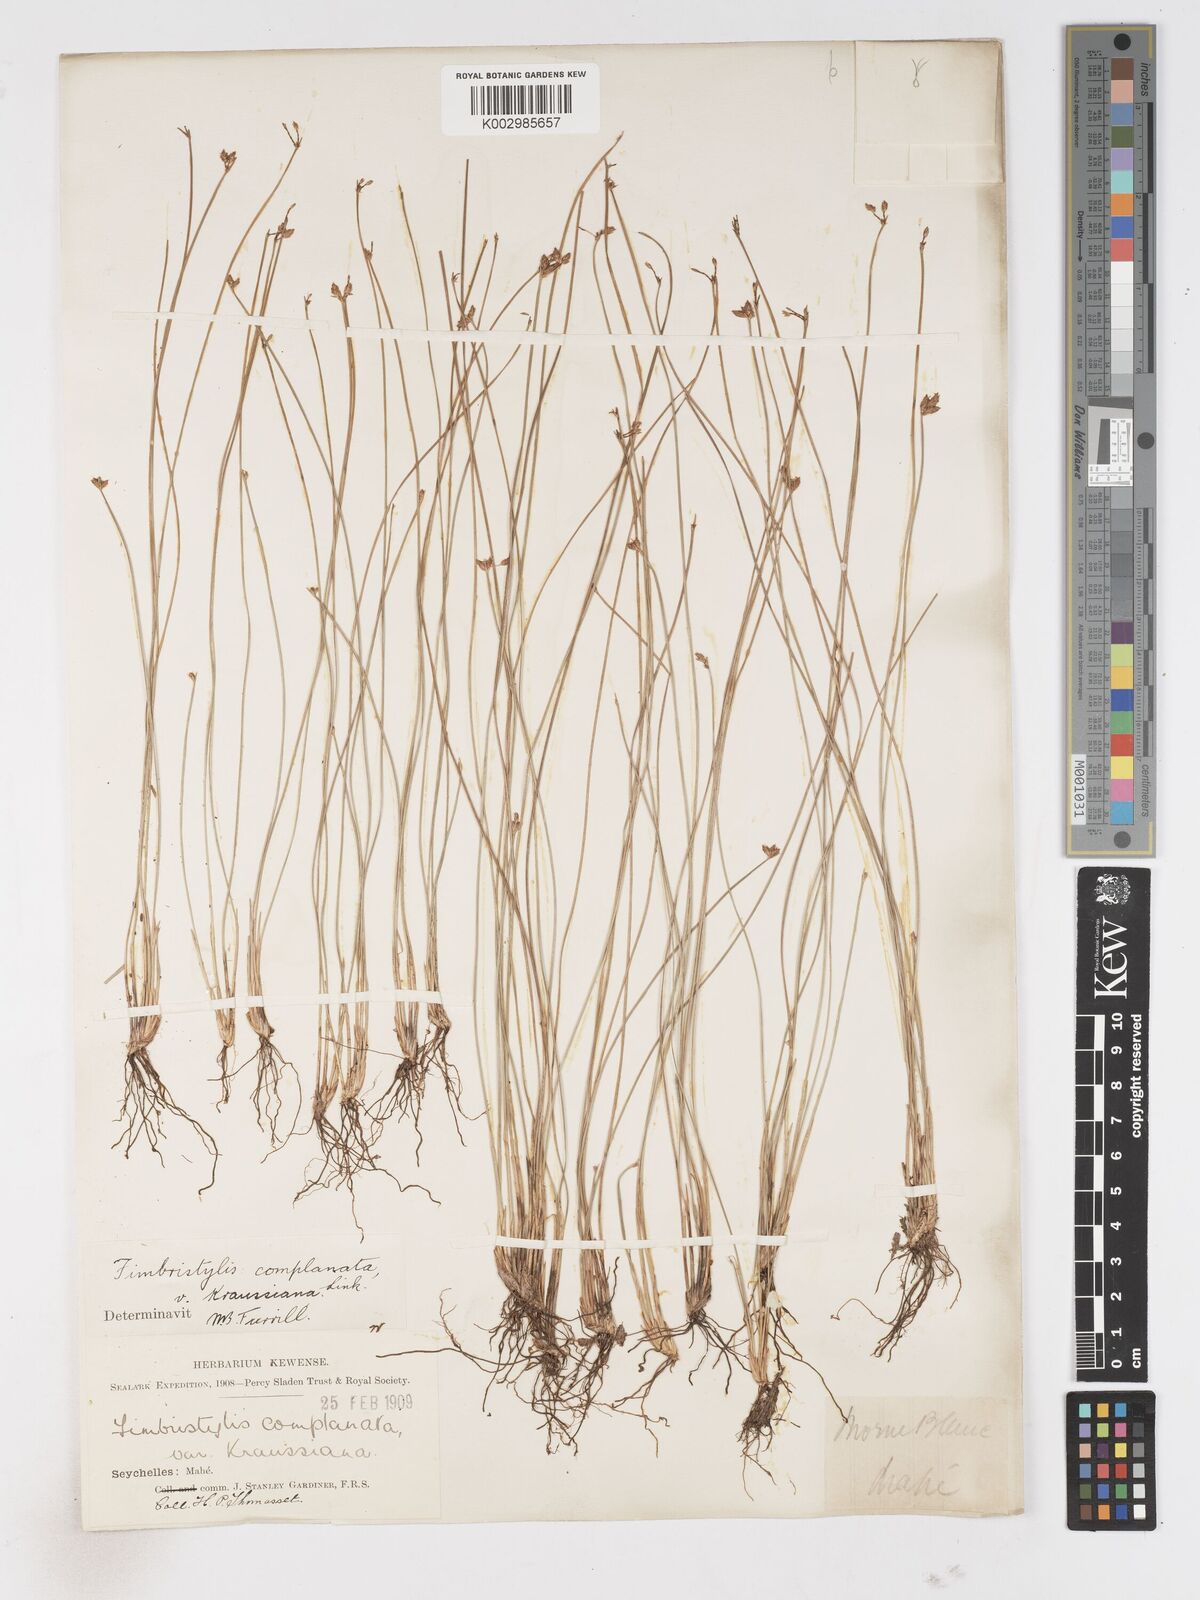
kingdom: Plantae
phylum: Tracheophyta
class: Liliopsida
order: Poales
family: Cyperaceae
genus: Fimbristylis
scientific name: Fimbristylis complanata
